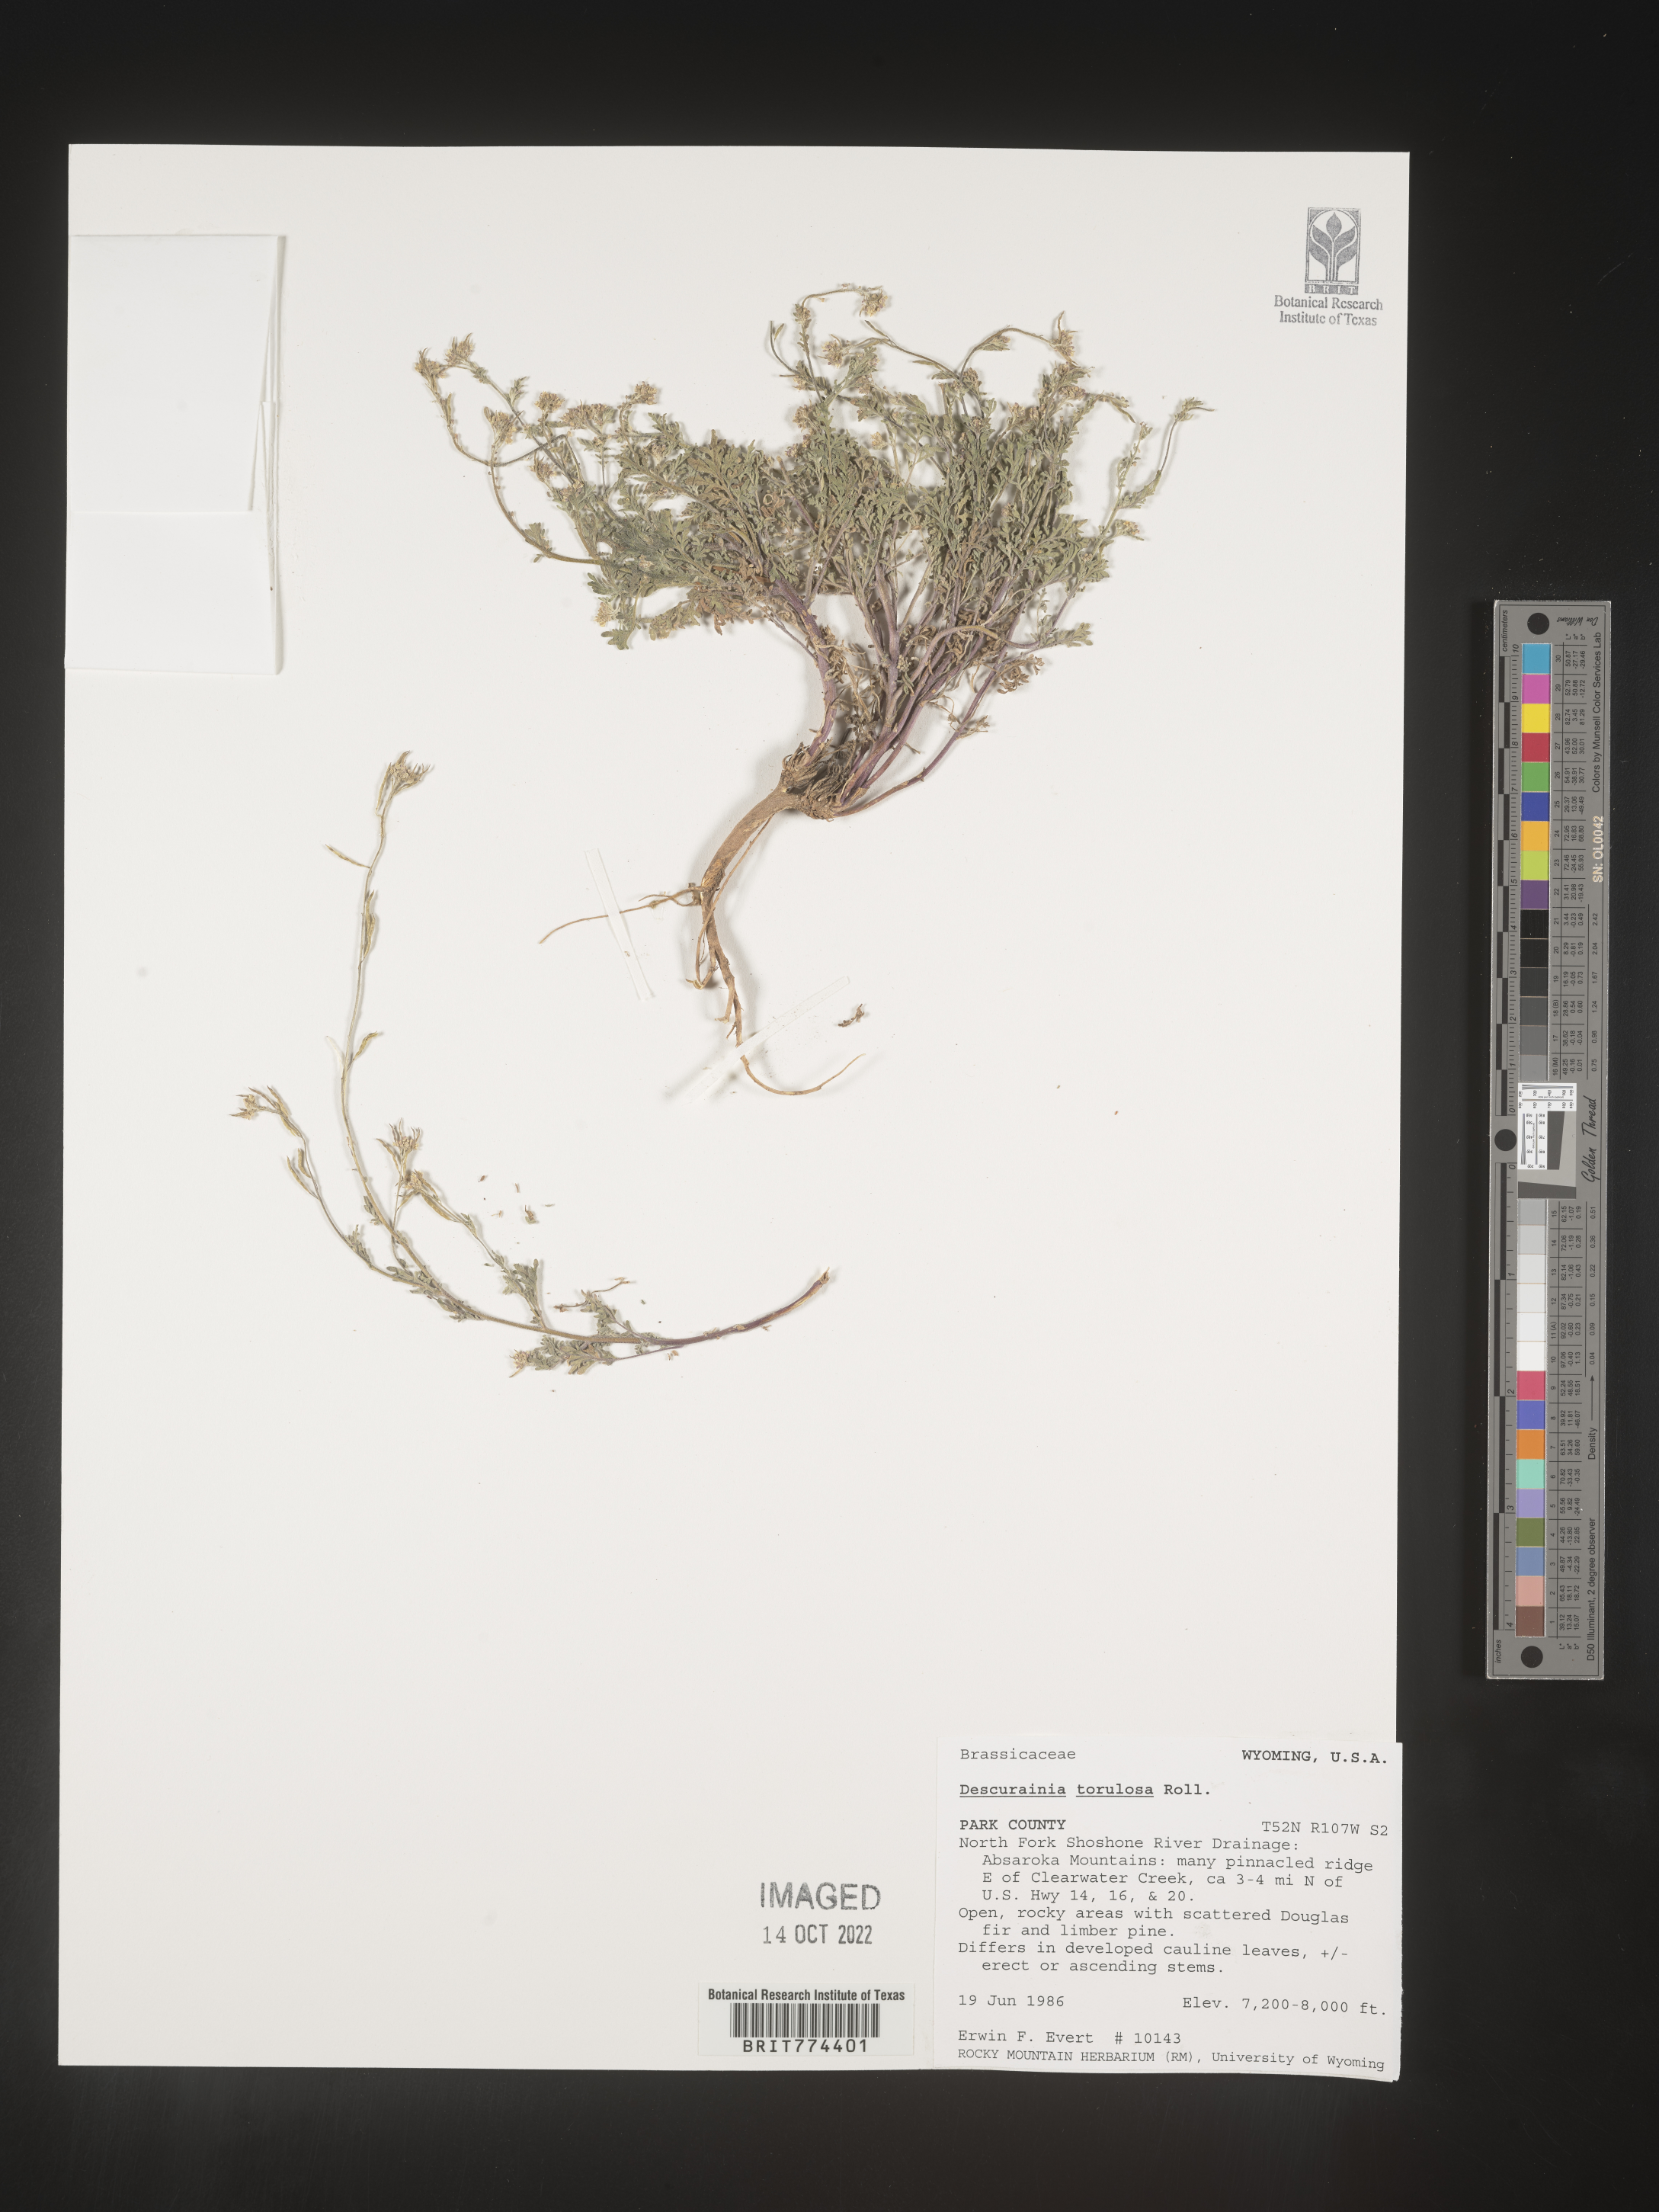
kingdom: Plantae
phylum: Tracheophyta
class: Magnoliopsida
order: Brassicales
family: Brassicaceae
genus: Descurainia
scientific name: Descurainia
